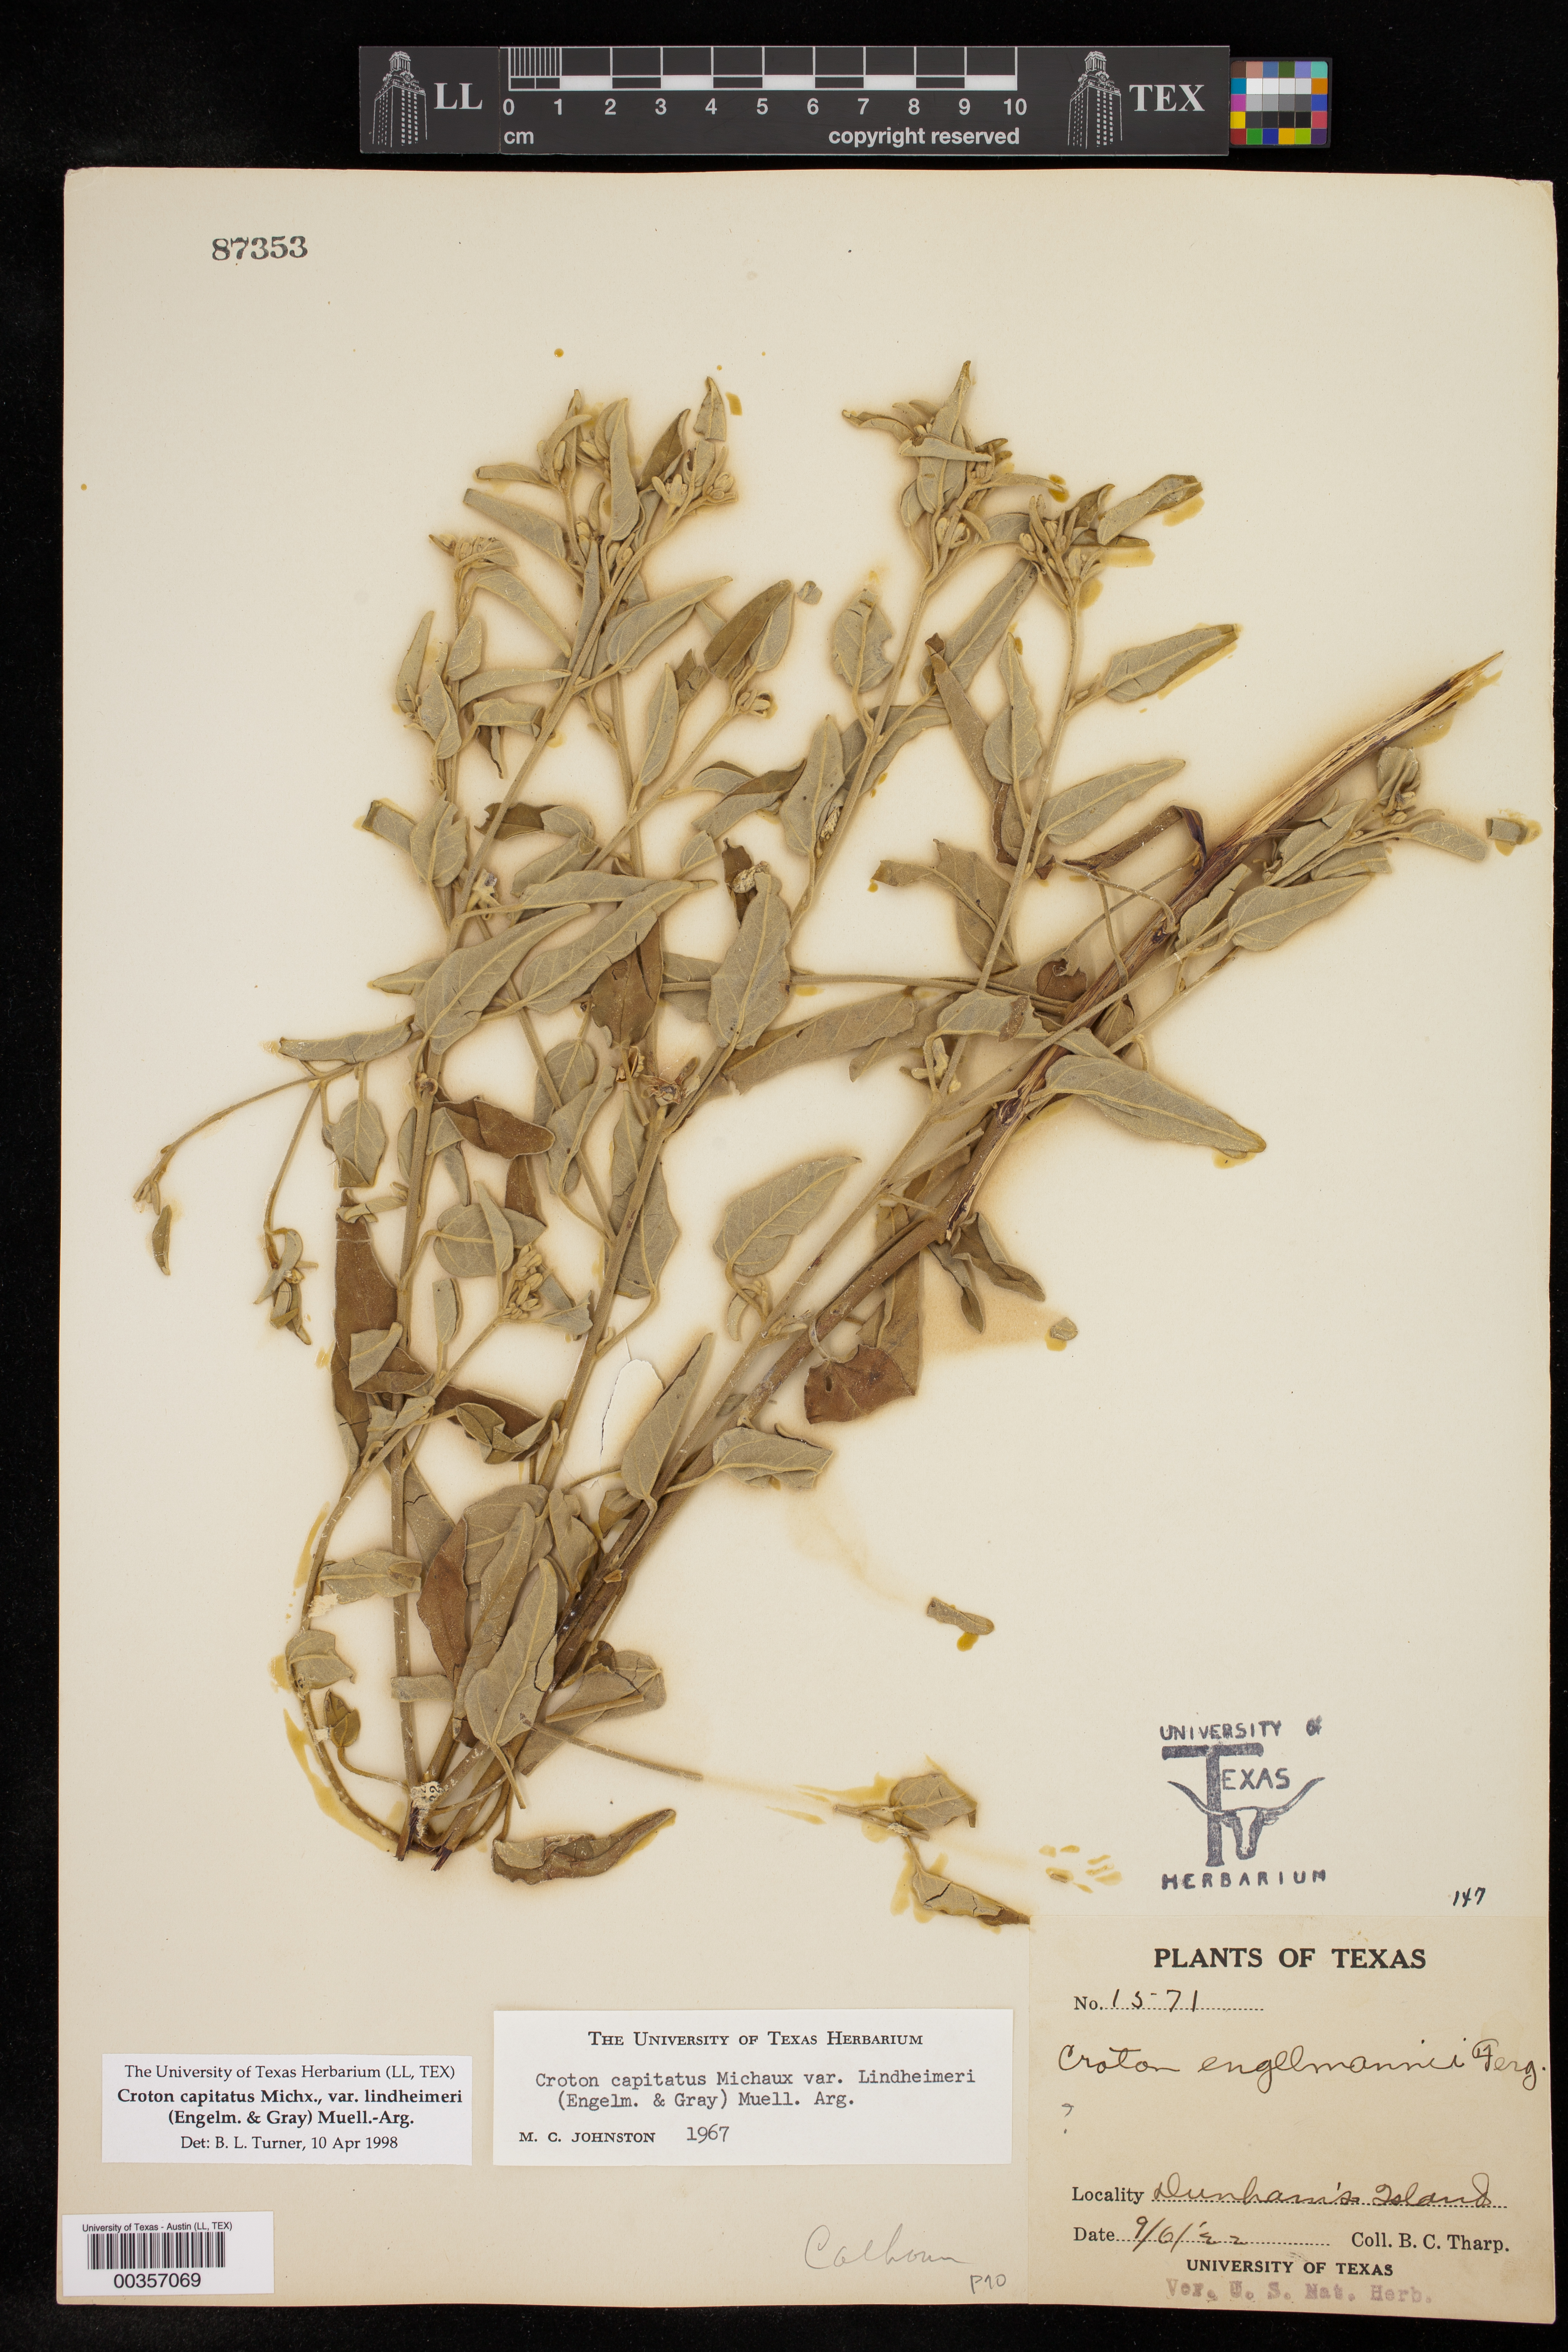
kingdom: Plantae
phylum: Tracheophyta
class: Magnoliopsida
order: Malpighiales
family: Euphorbiaceae
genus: Croton
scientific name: Croton lindheimeri
